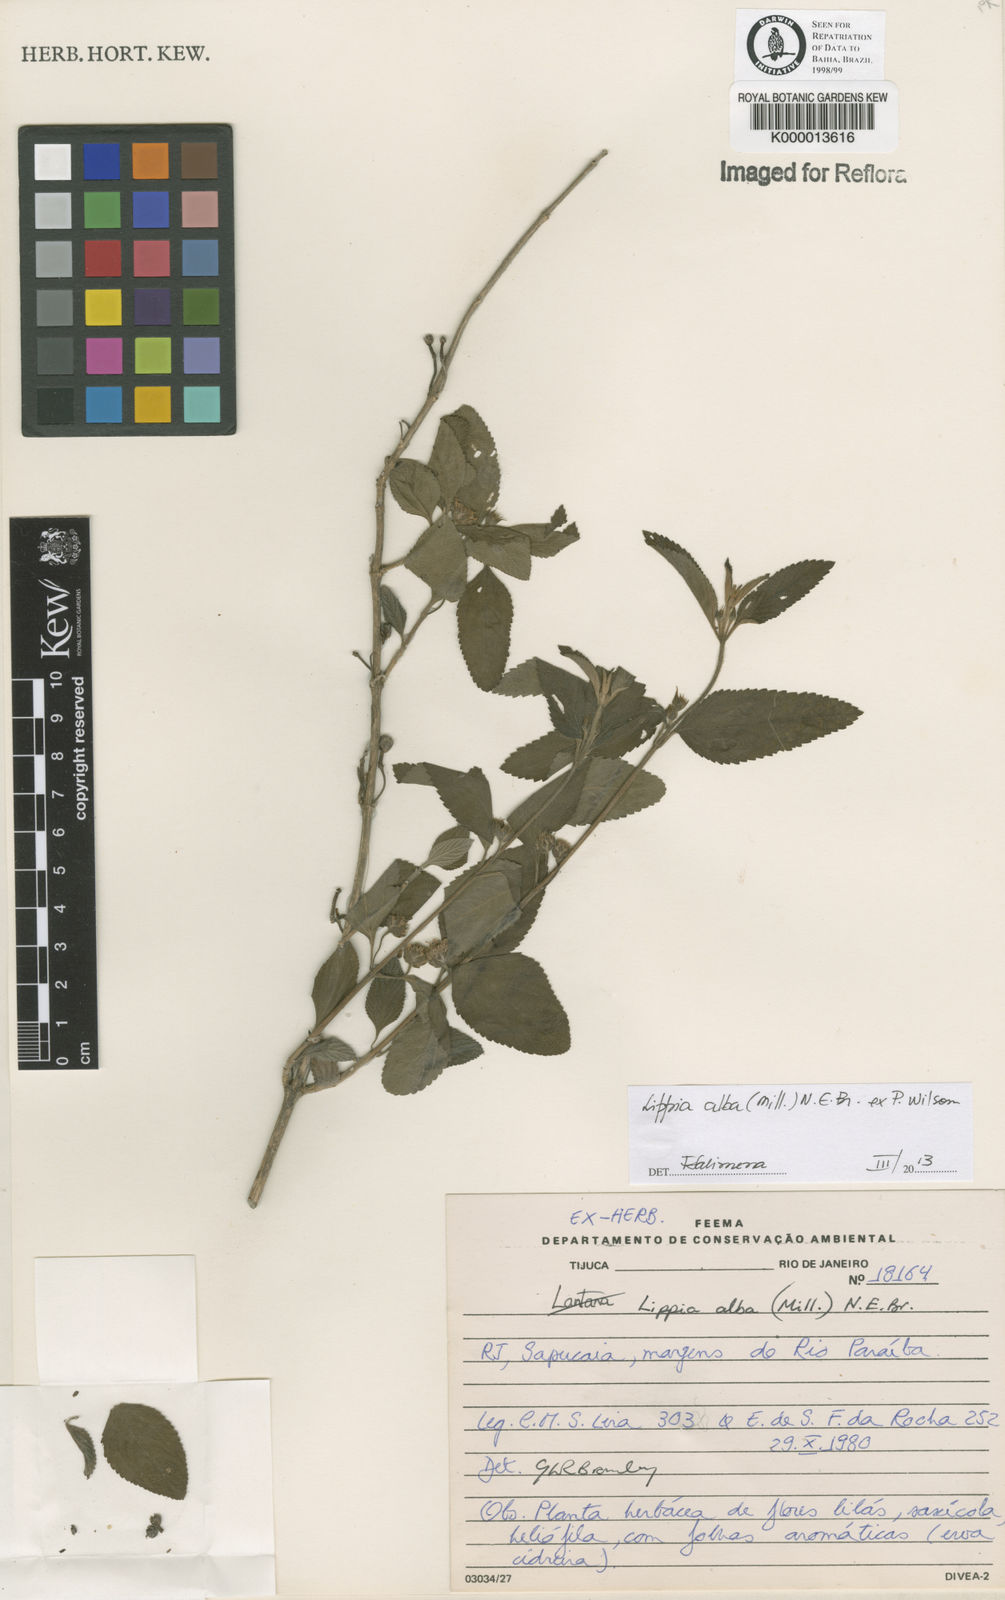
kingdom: Plantae
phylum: Tracheophyta
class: Magnoliopsida
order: Lamiales
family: Verbenaceae
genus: Lippia
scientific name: Lippia
